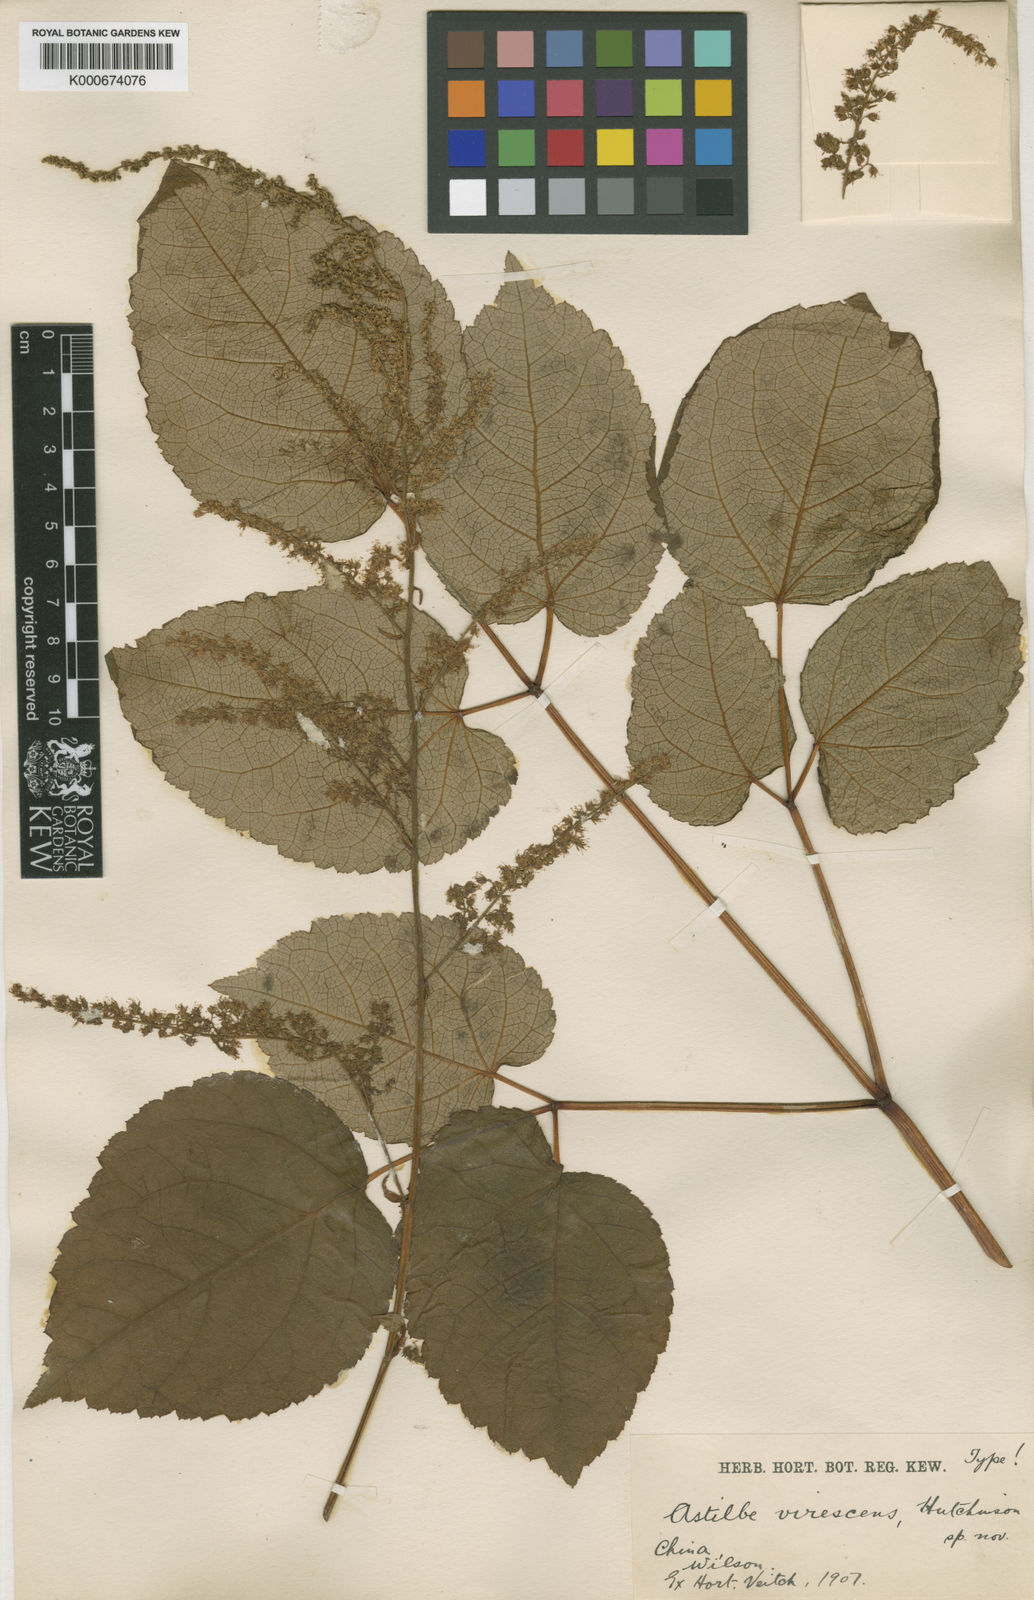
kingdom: Plantae
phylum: Tracheophyta
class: Magnoliopsida
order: Saxifragales
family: Saxifragaceae
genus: Astilbe
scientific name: Astilbe rivularis
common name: Tall false-buck's-beard
